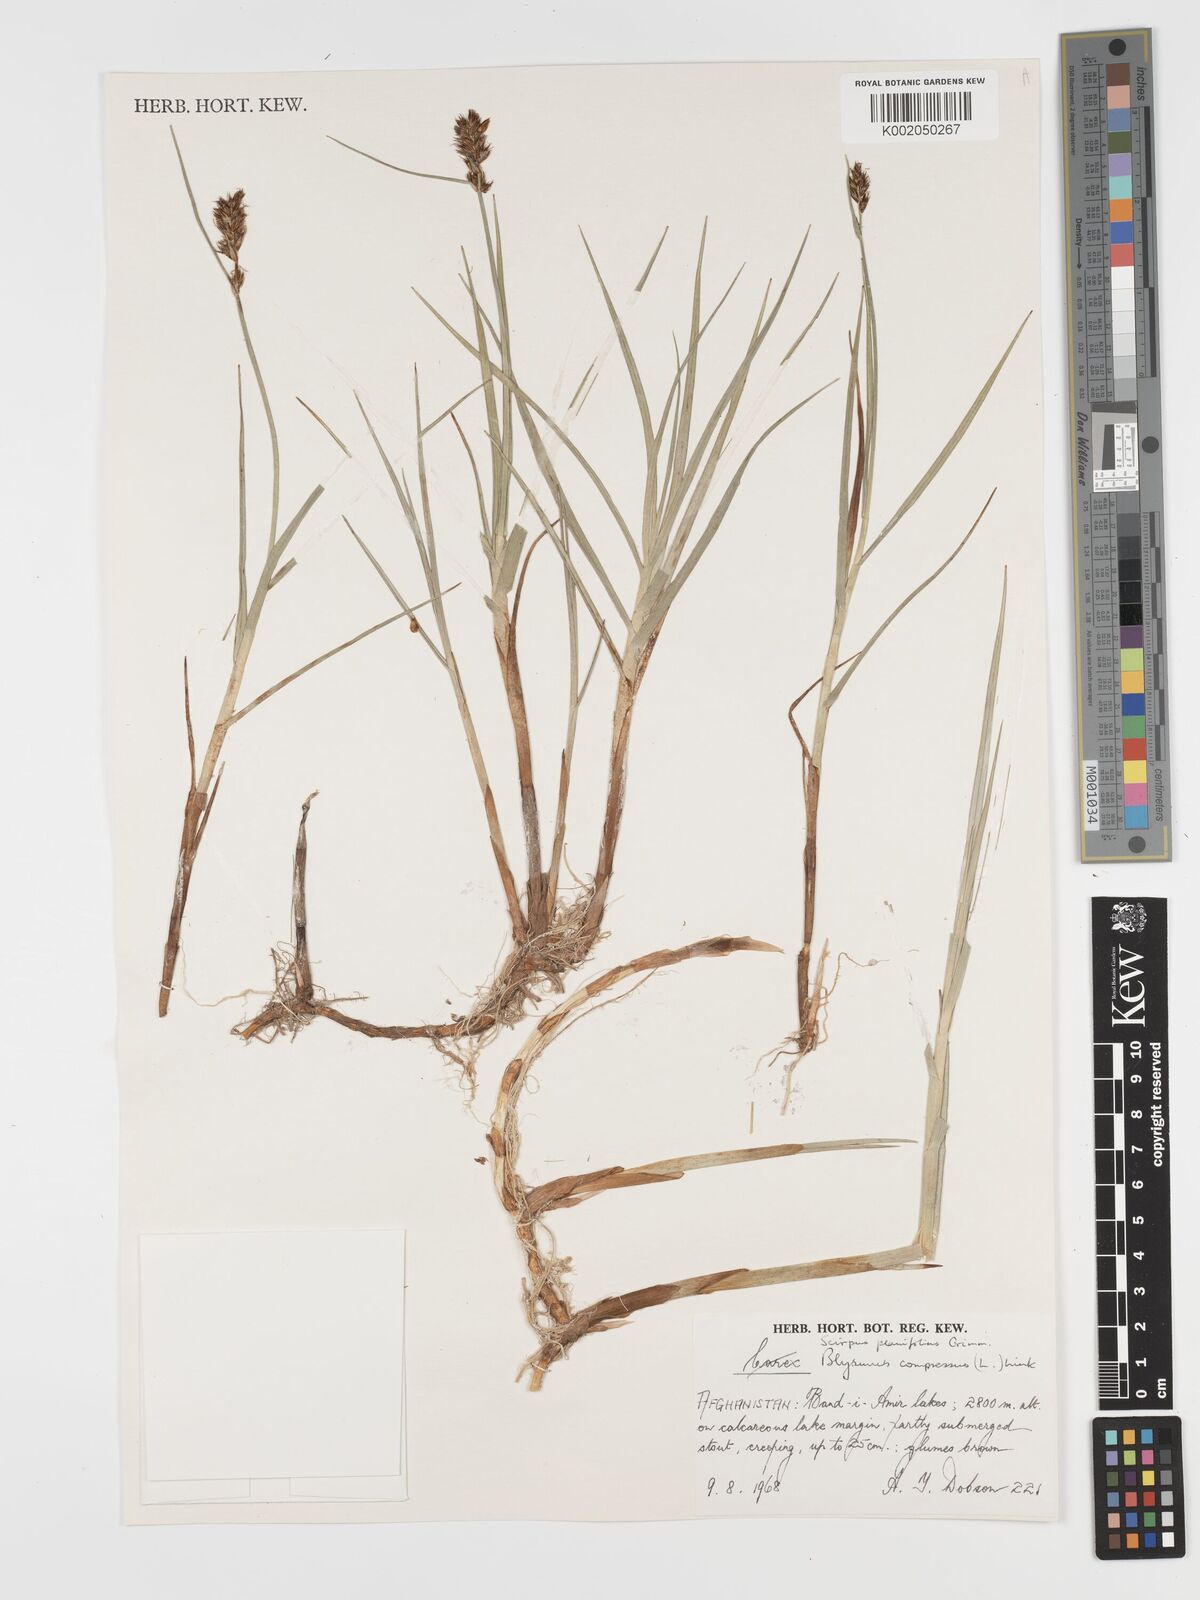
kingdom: Plantae
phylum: Tracheophyta
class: Liliopsida
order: Poales
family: Cyperaceae
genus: Blysmus
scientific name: Blysmus compressus
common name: Flat-sedge
